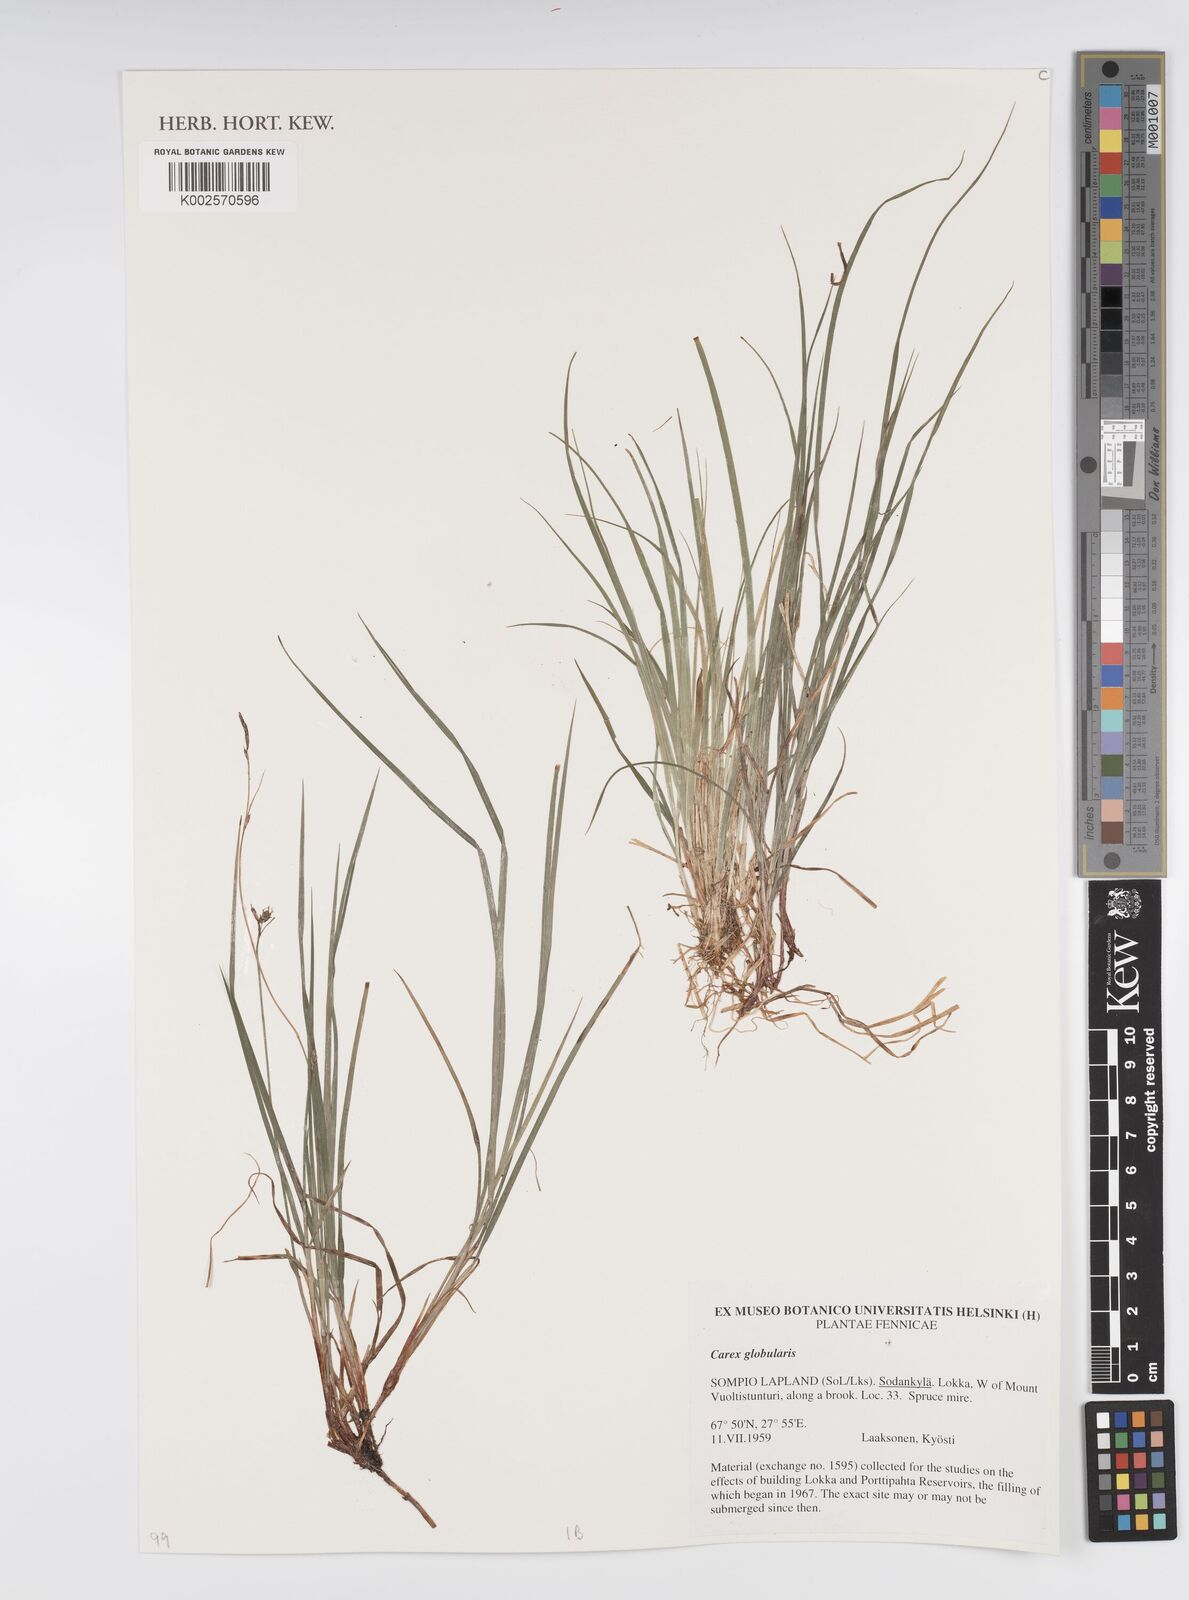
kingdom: Plantae
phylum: Tracheophyta
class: Liliopsida
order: Poales
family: Cyperaceae
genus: Carex
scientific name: Carex globularis
